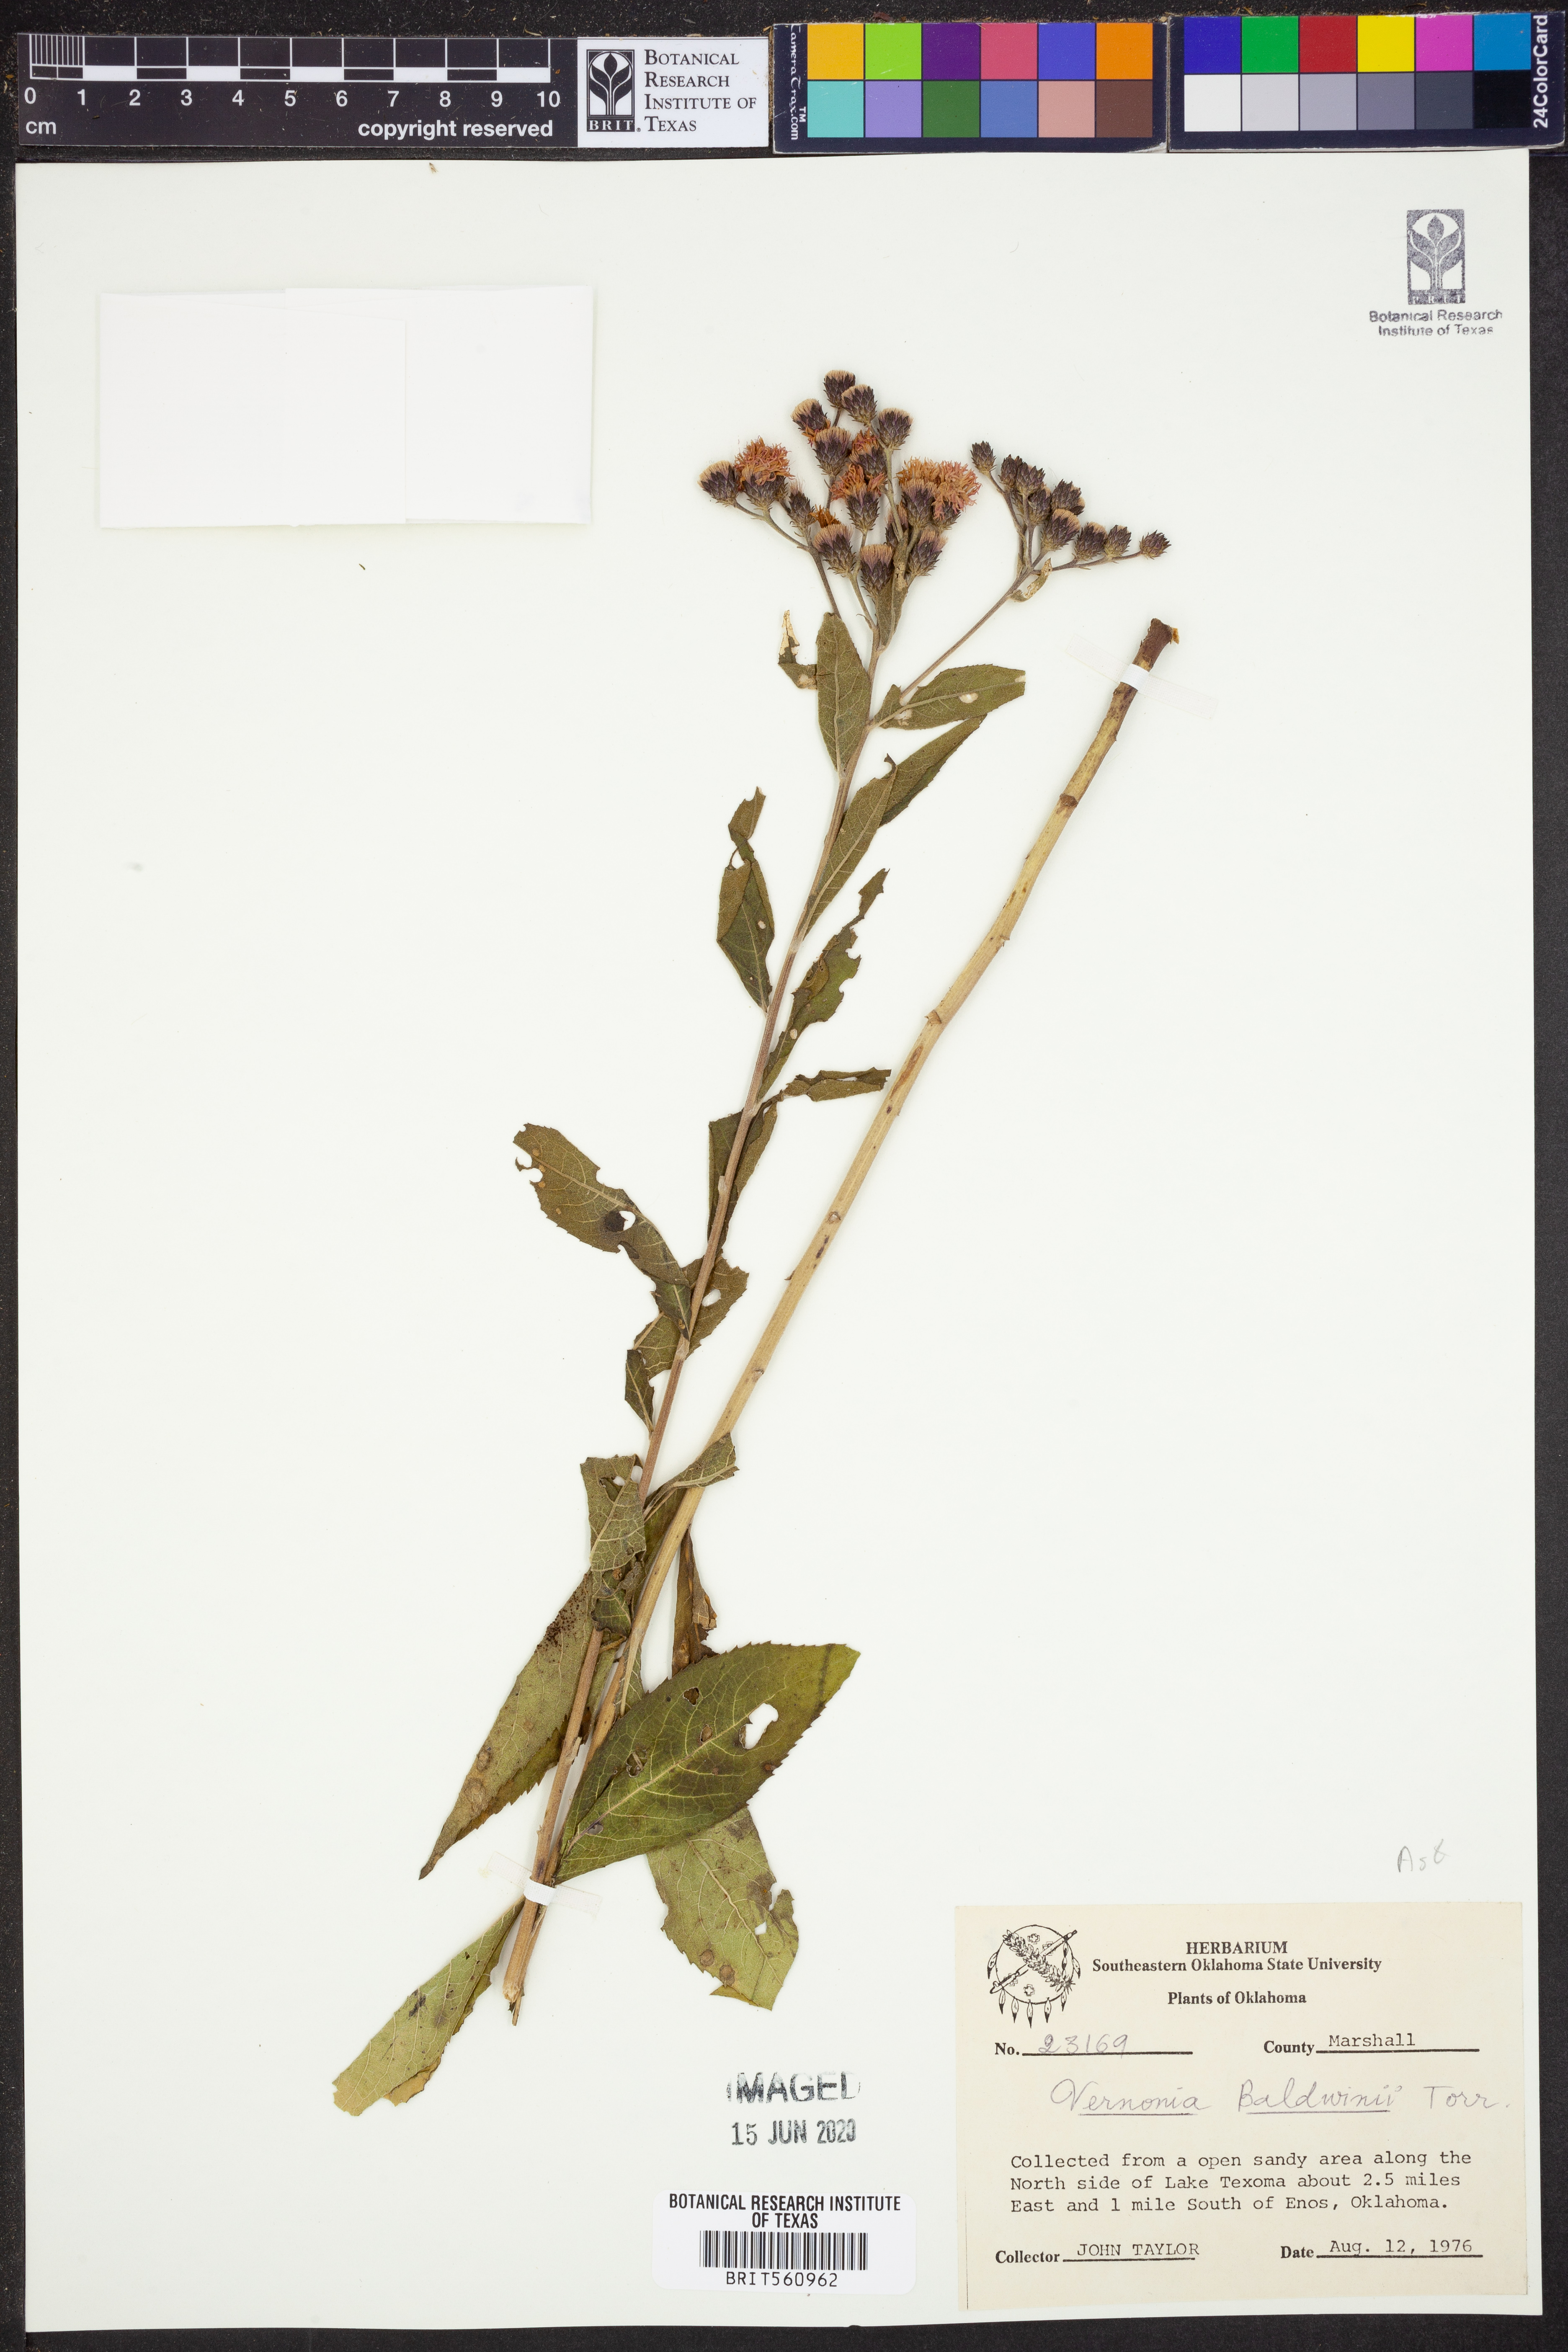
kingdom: Plantae
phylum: Tracheophyta
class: Magnoliopsida
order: Asterales
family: Asteraceae
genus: Vernonia
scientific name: Vernonia baldwinii
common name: Western ironweed
